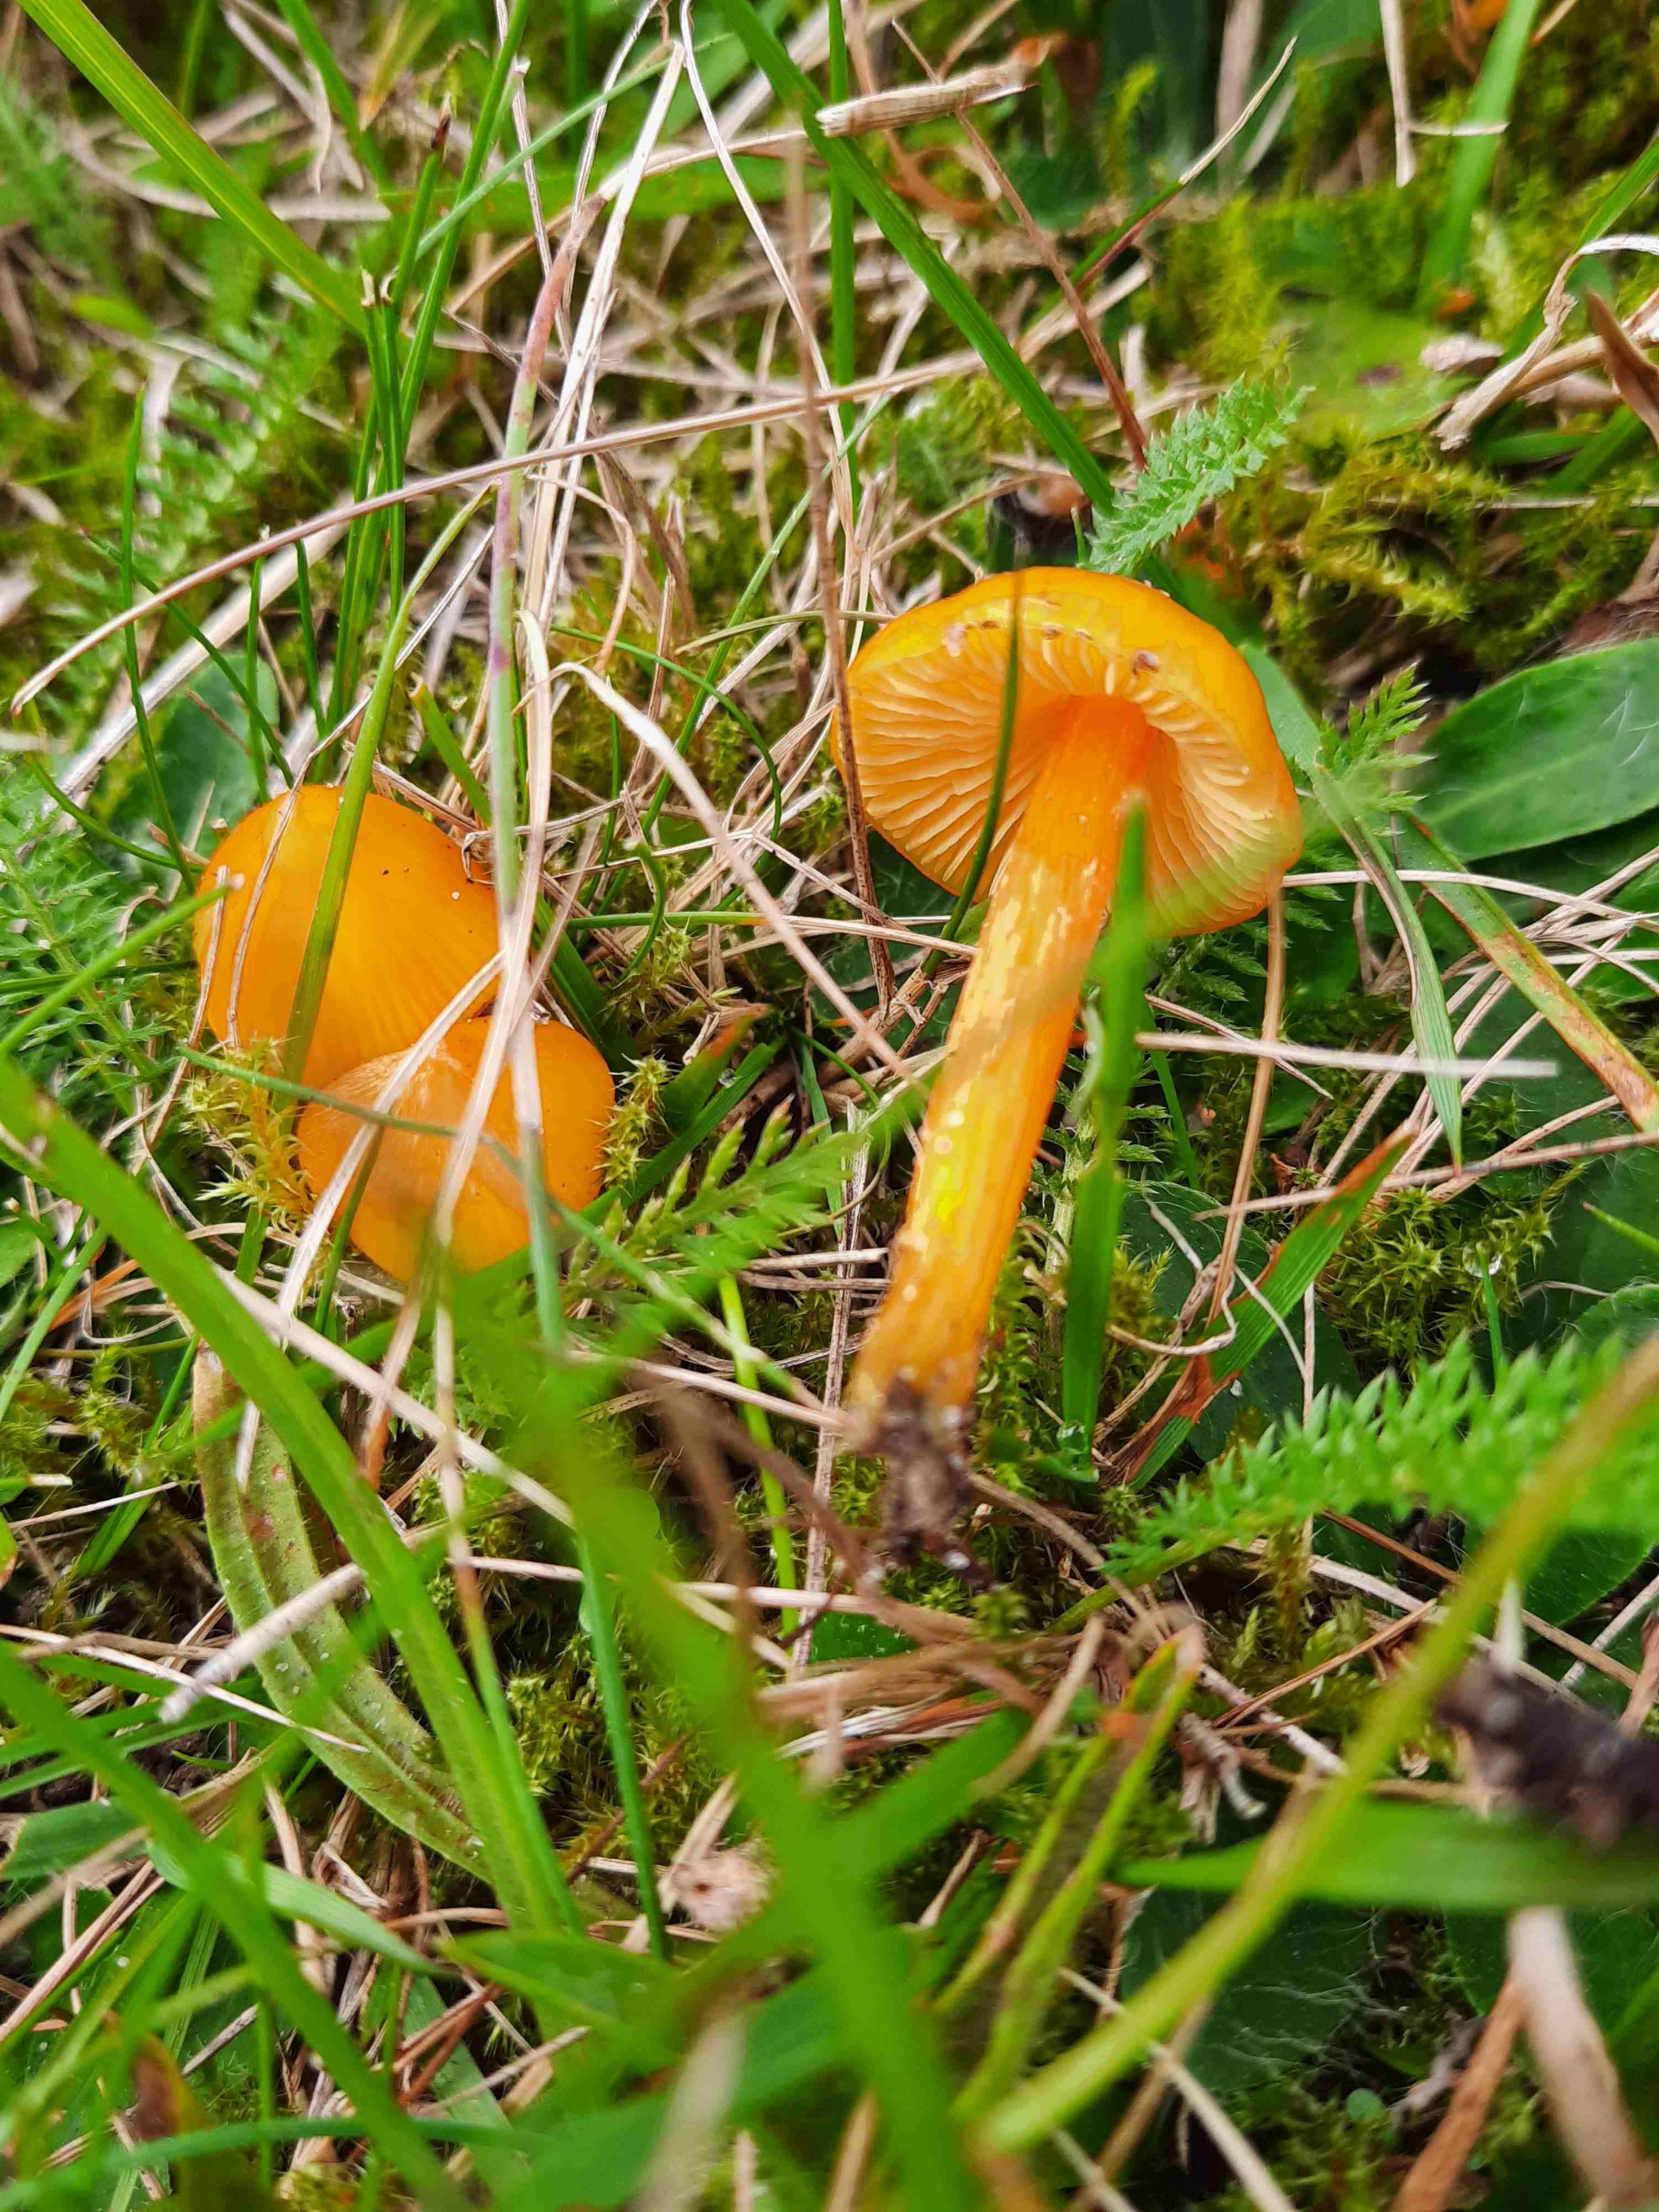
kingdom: Fungi
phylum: Basidiomycota
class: Agaricomycetes
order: Agaricales
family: Hygrophoraceae
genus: Hygrocybe
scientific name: Hygrocybe ceracea
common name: voksgul vokshat
